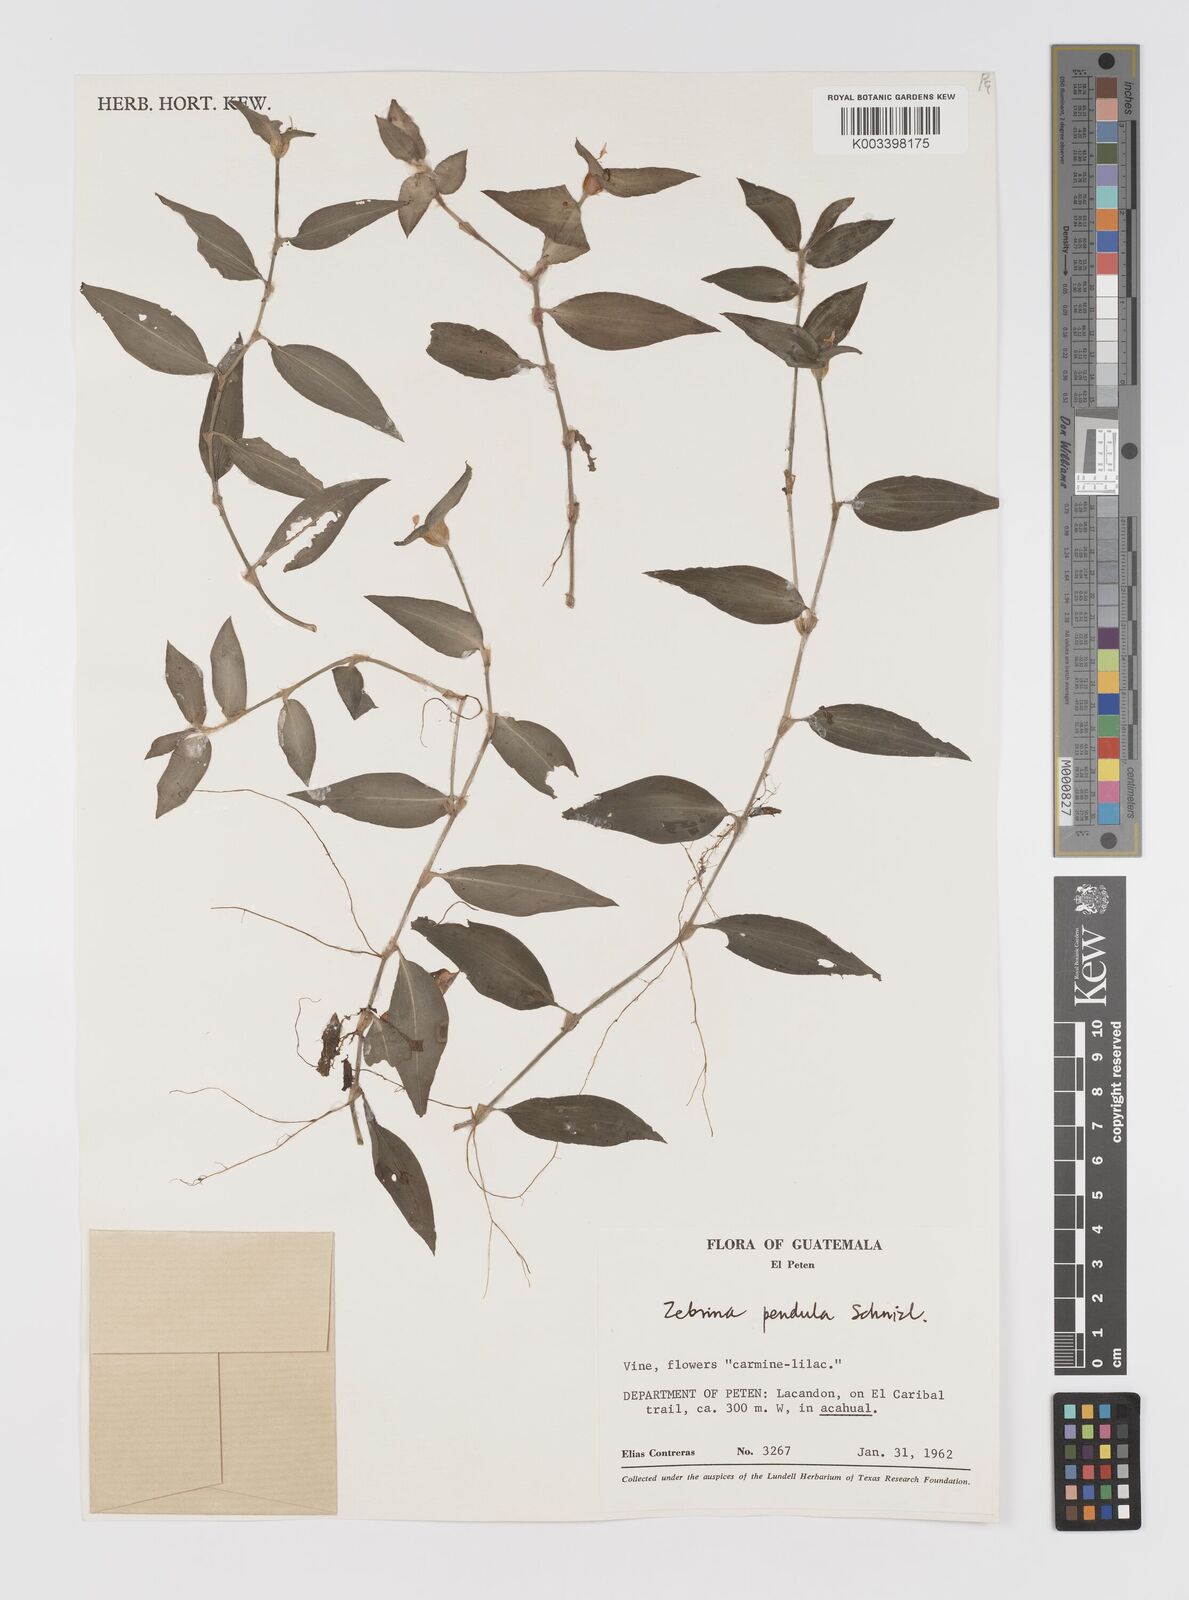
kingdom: Plantae
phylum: Tracheophyta
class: Liliopsida
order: Commelinales
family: Commelinaceae
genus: Tradescantia
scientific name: Tradescantia zebrina
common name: Inchplant
